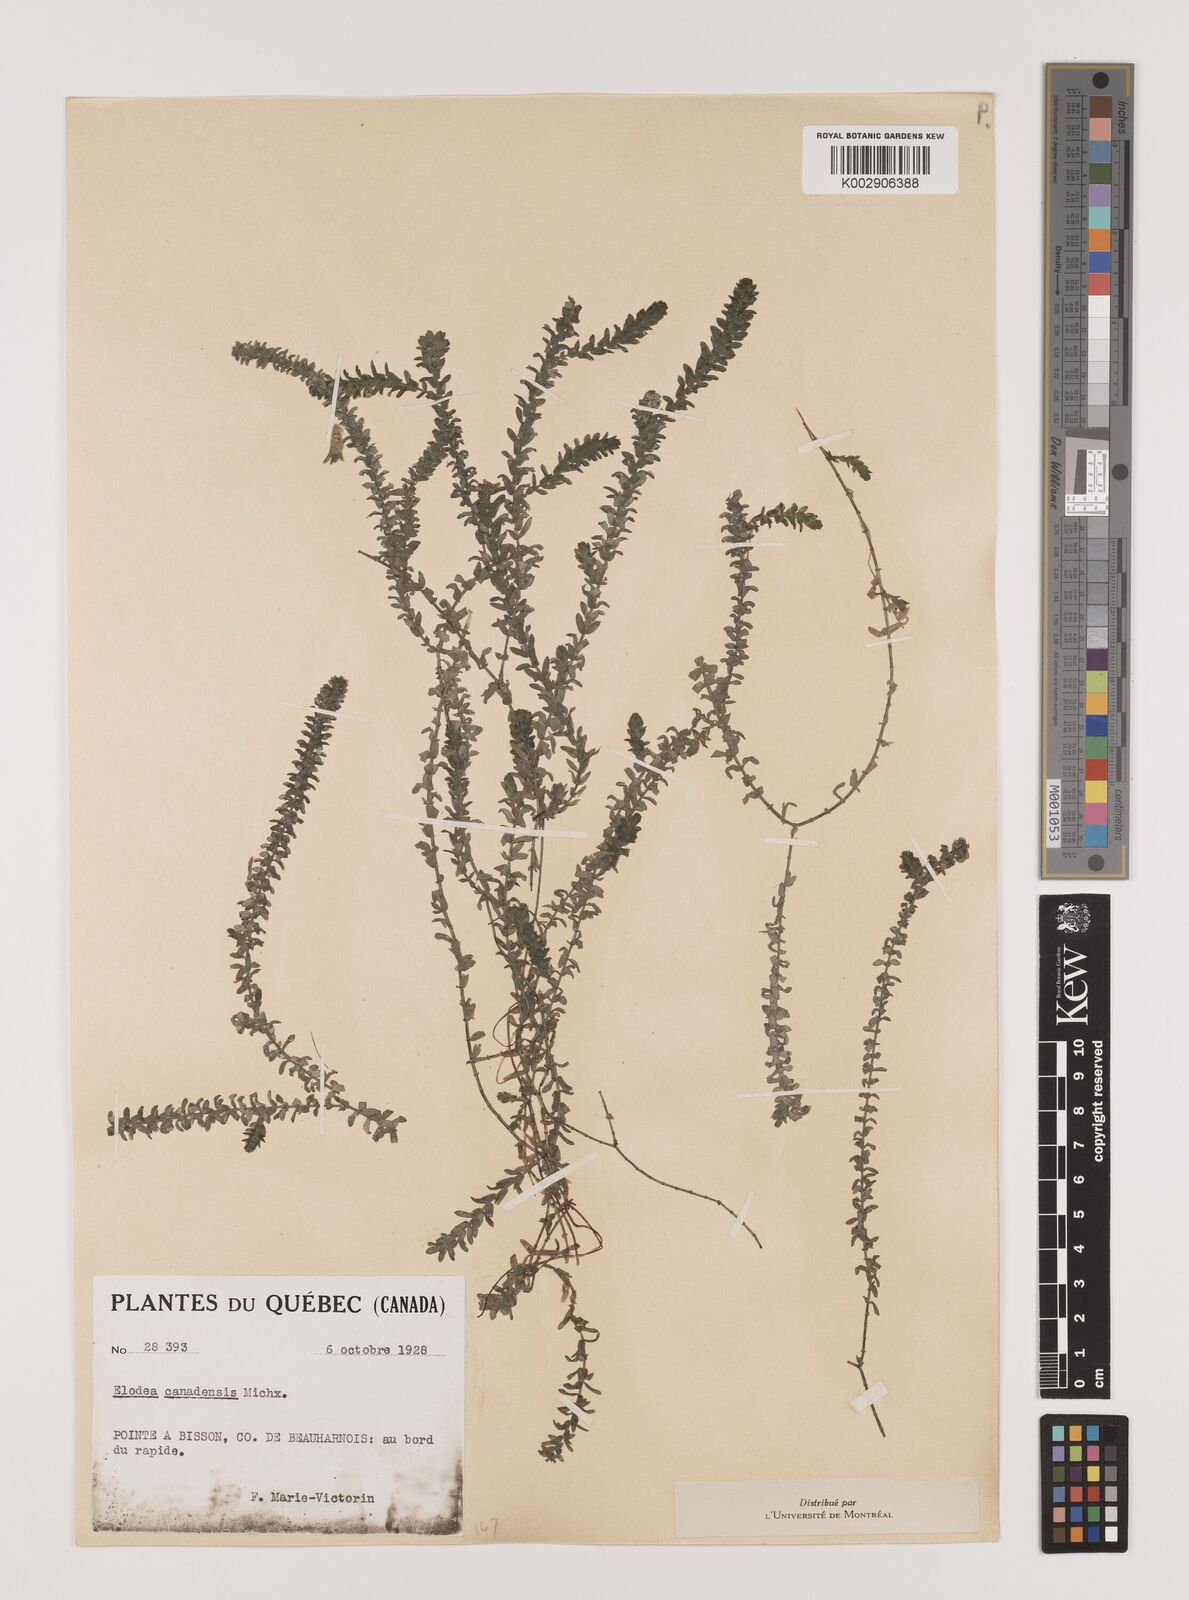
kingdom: Plantae
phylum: Tracheophyta
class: Liliopsida
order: Alismatales
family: Hydrocharitaceae
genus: Elodea
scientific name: Elodea canadensis
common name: Canadian waterweed
